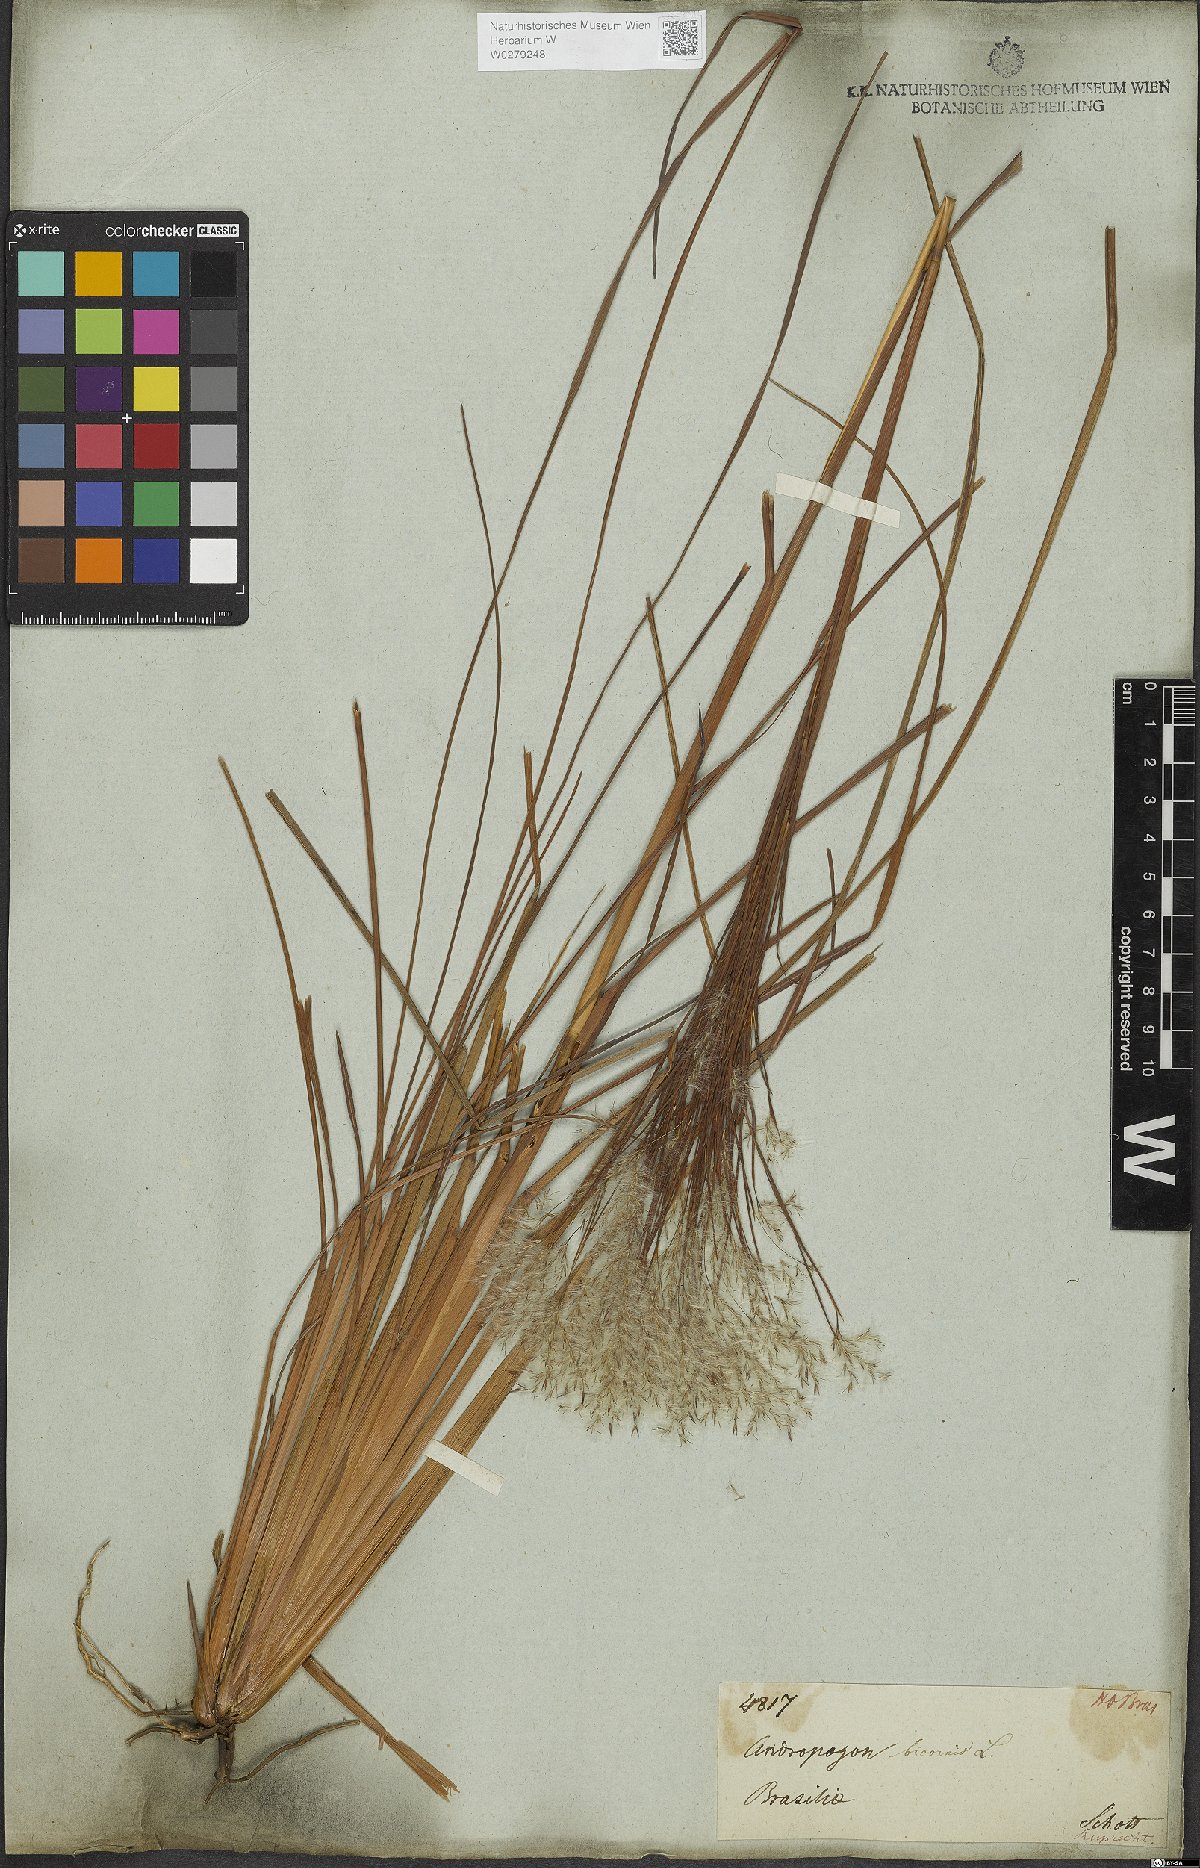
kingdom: Plantae
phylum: Tracheophyta
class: Liliopsida
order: Poales
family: Poaceae
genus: Andropogon
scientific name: Andropogon bicornis
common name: West indian foxtail grass
